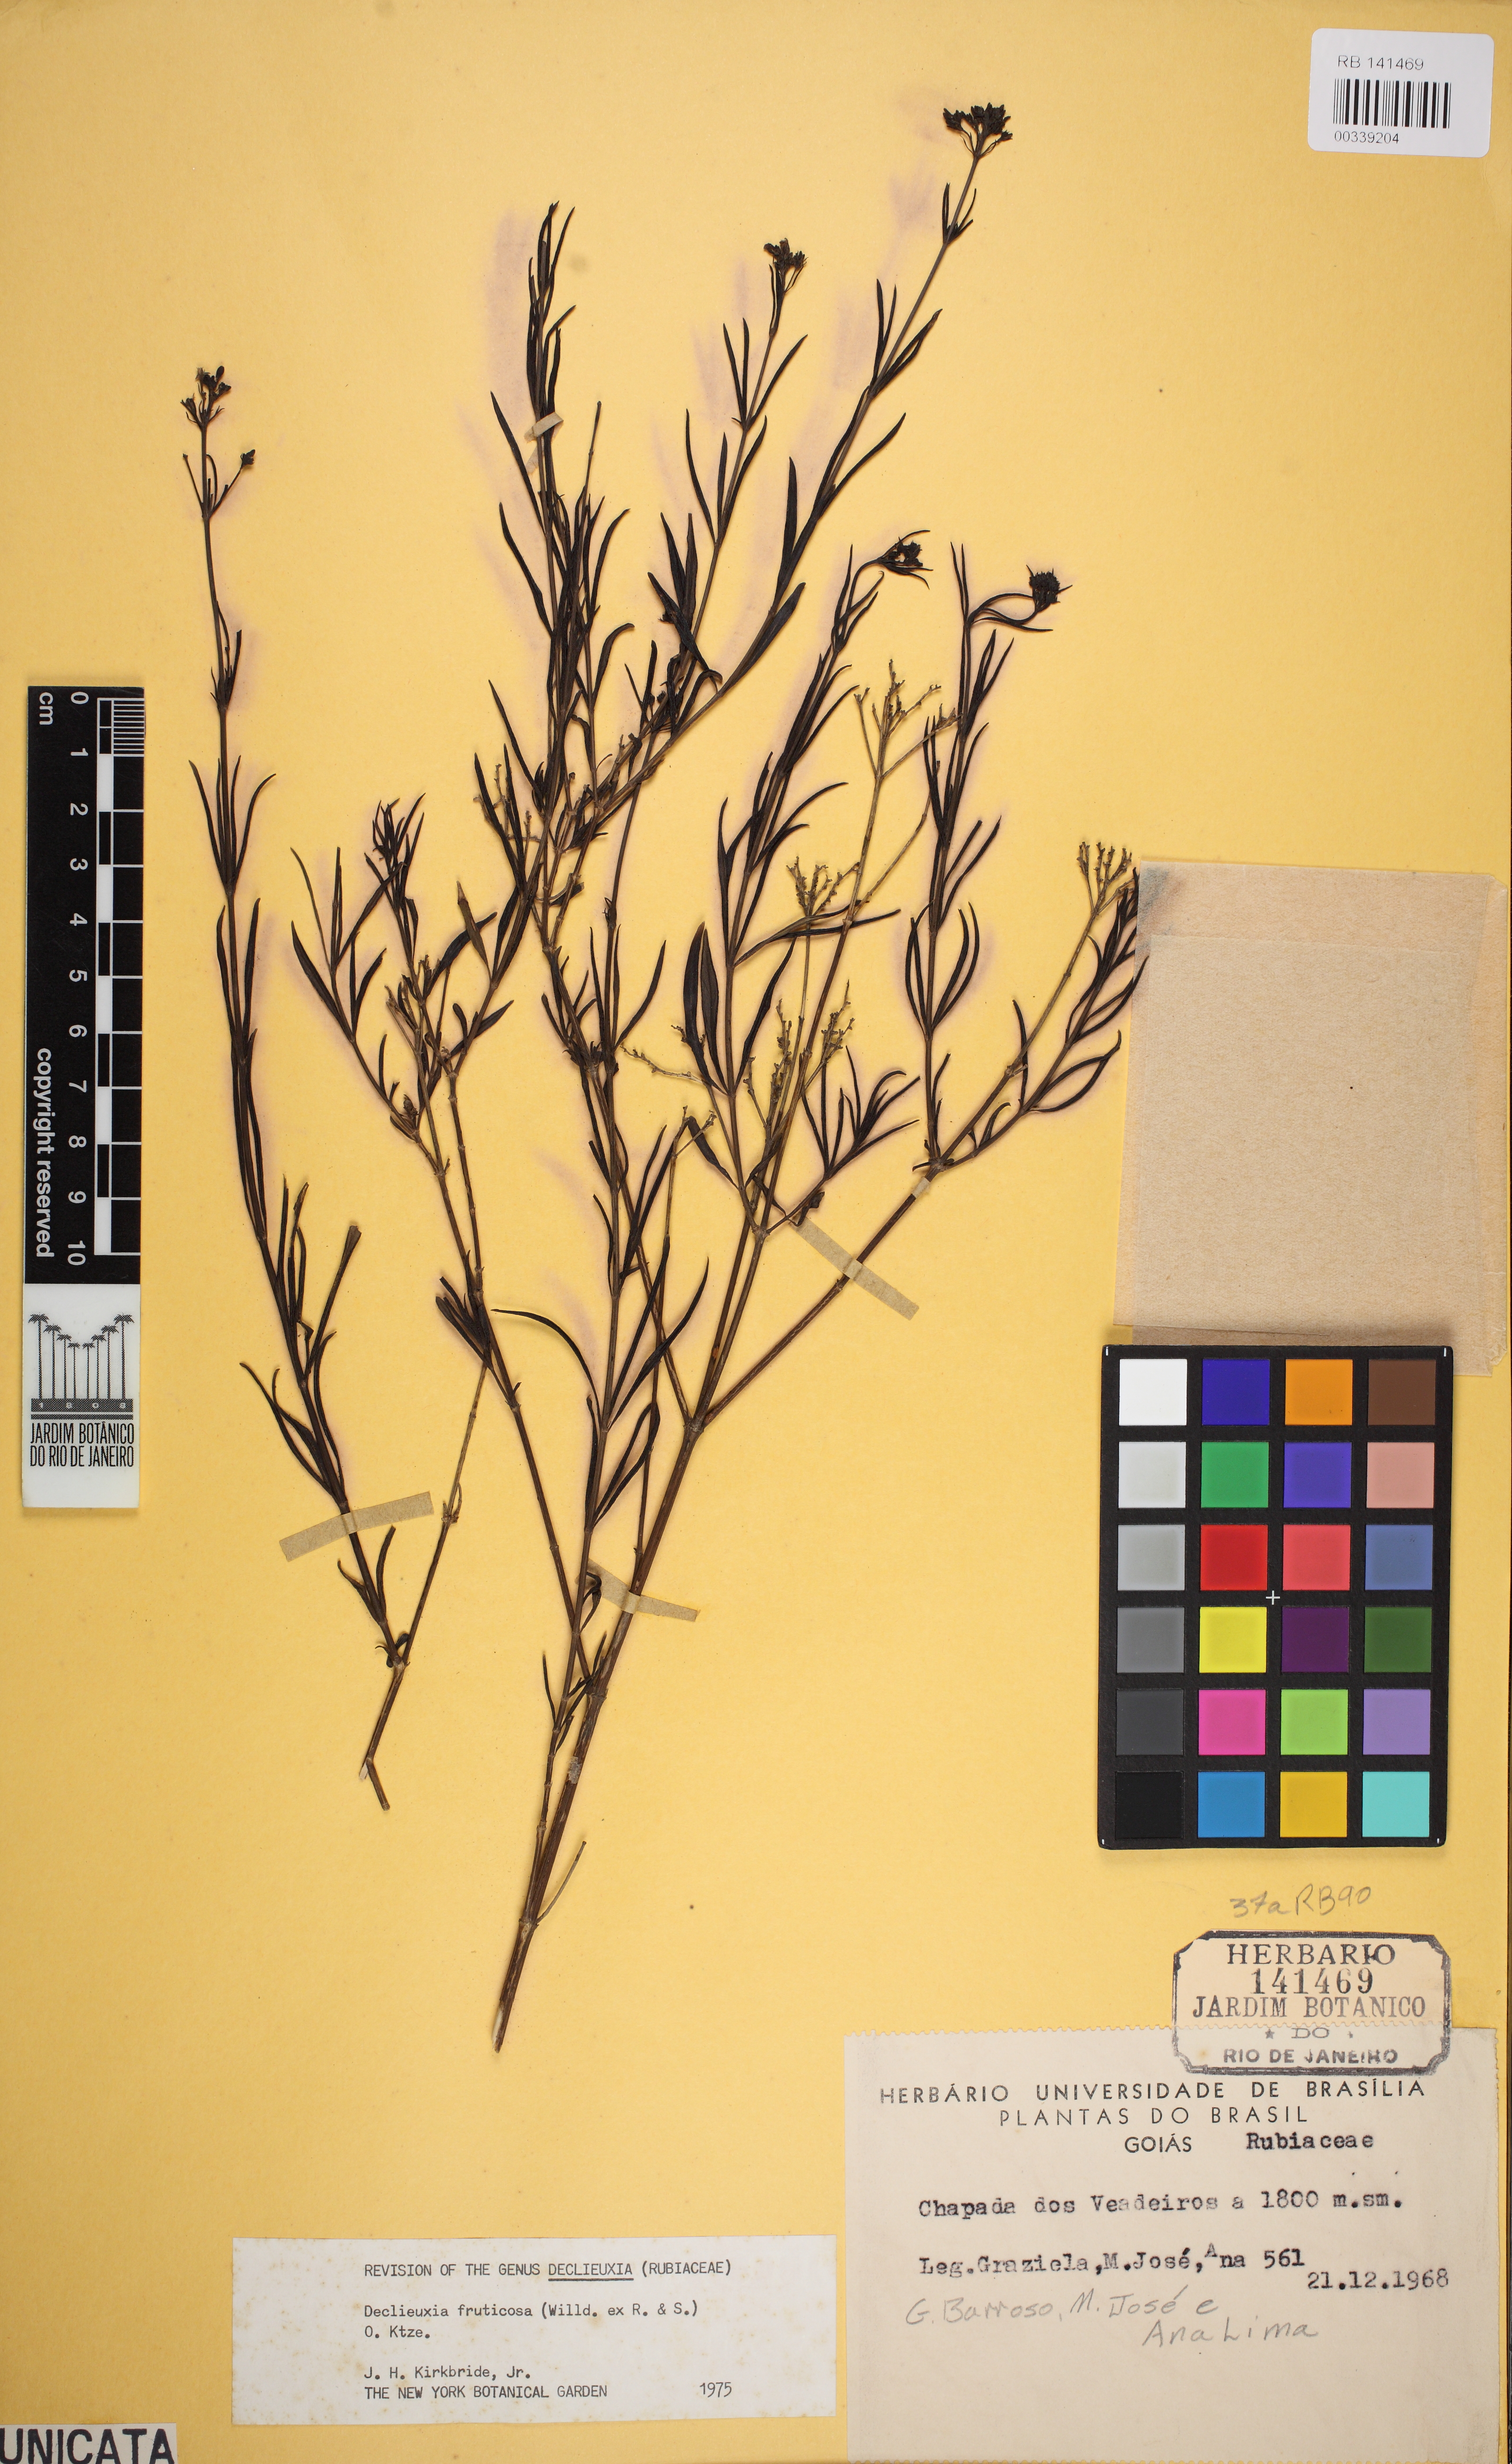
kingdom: Plantae
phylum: Tracheophyta
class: Magnoliopsida
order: Gentianales
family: Rubiaceae
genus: Declieuxia
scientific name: Declieuxia fruticosa
